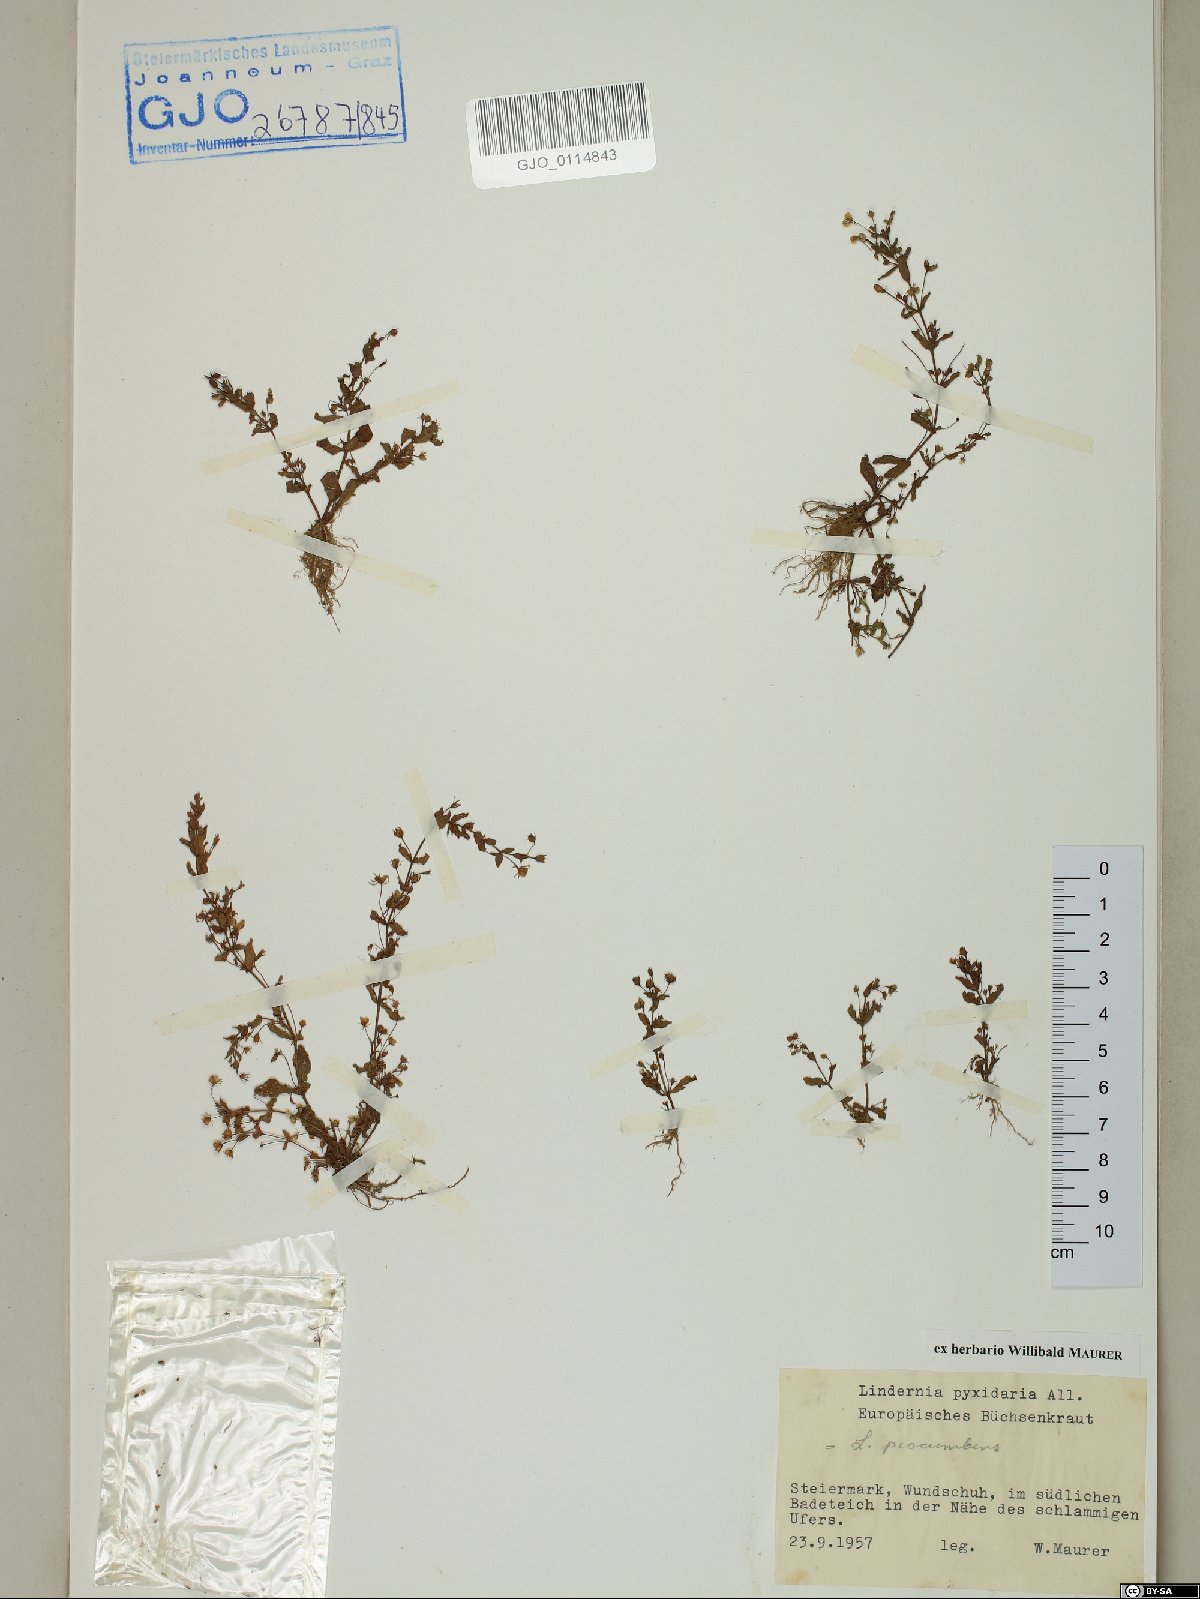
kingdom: Plantae
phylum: Tracheophyta
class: Magnoliopsida
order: Lamiales
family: Linderniaceae
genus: Lindernia
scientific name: Lindernia dubia
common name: Annual false pimpernel
